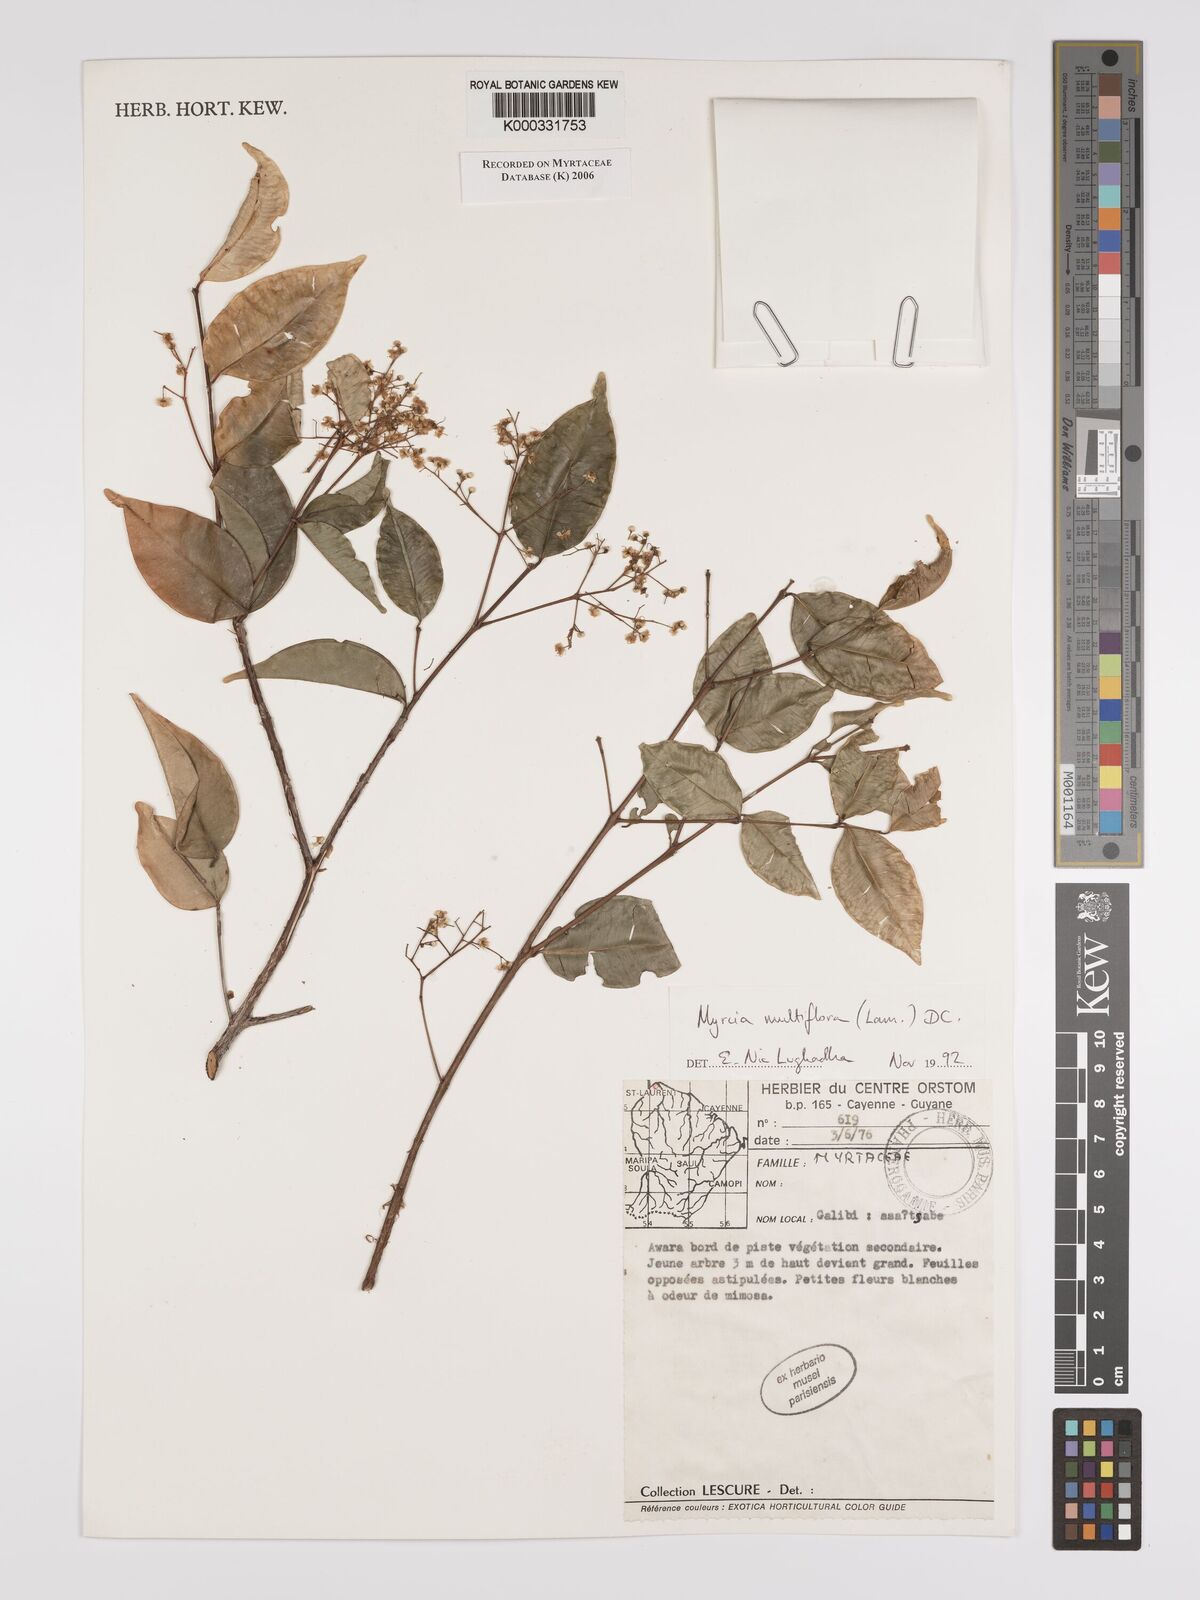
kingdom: Plantae
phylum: Tracheophyta
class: Magnoliopsida
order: Myrtales
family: Myrtaceae
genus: Myrcia
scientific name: Myrcia multiflora
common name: Pedra hume
